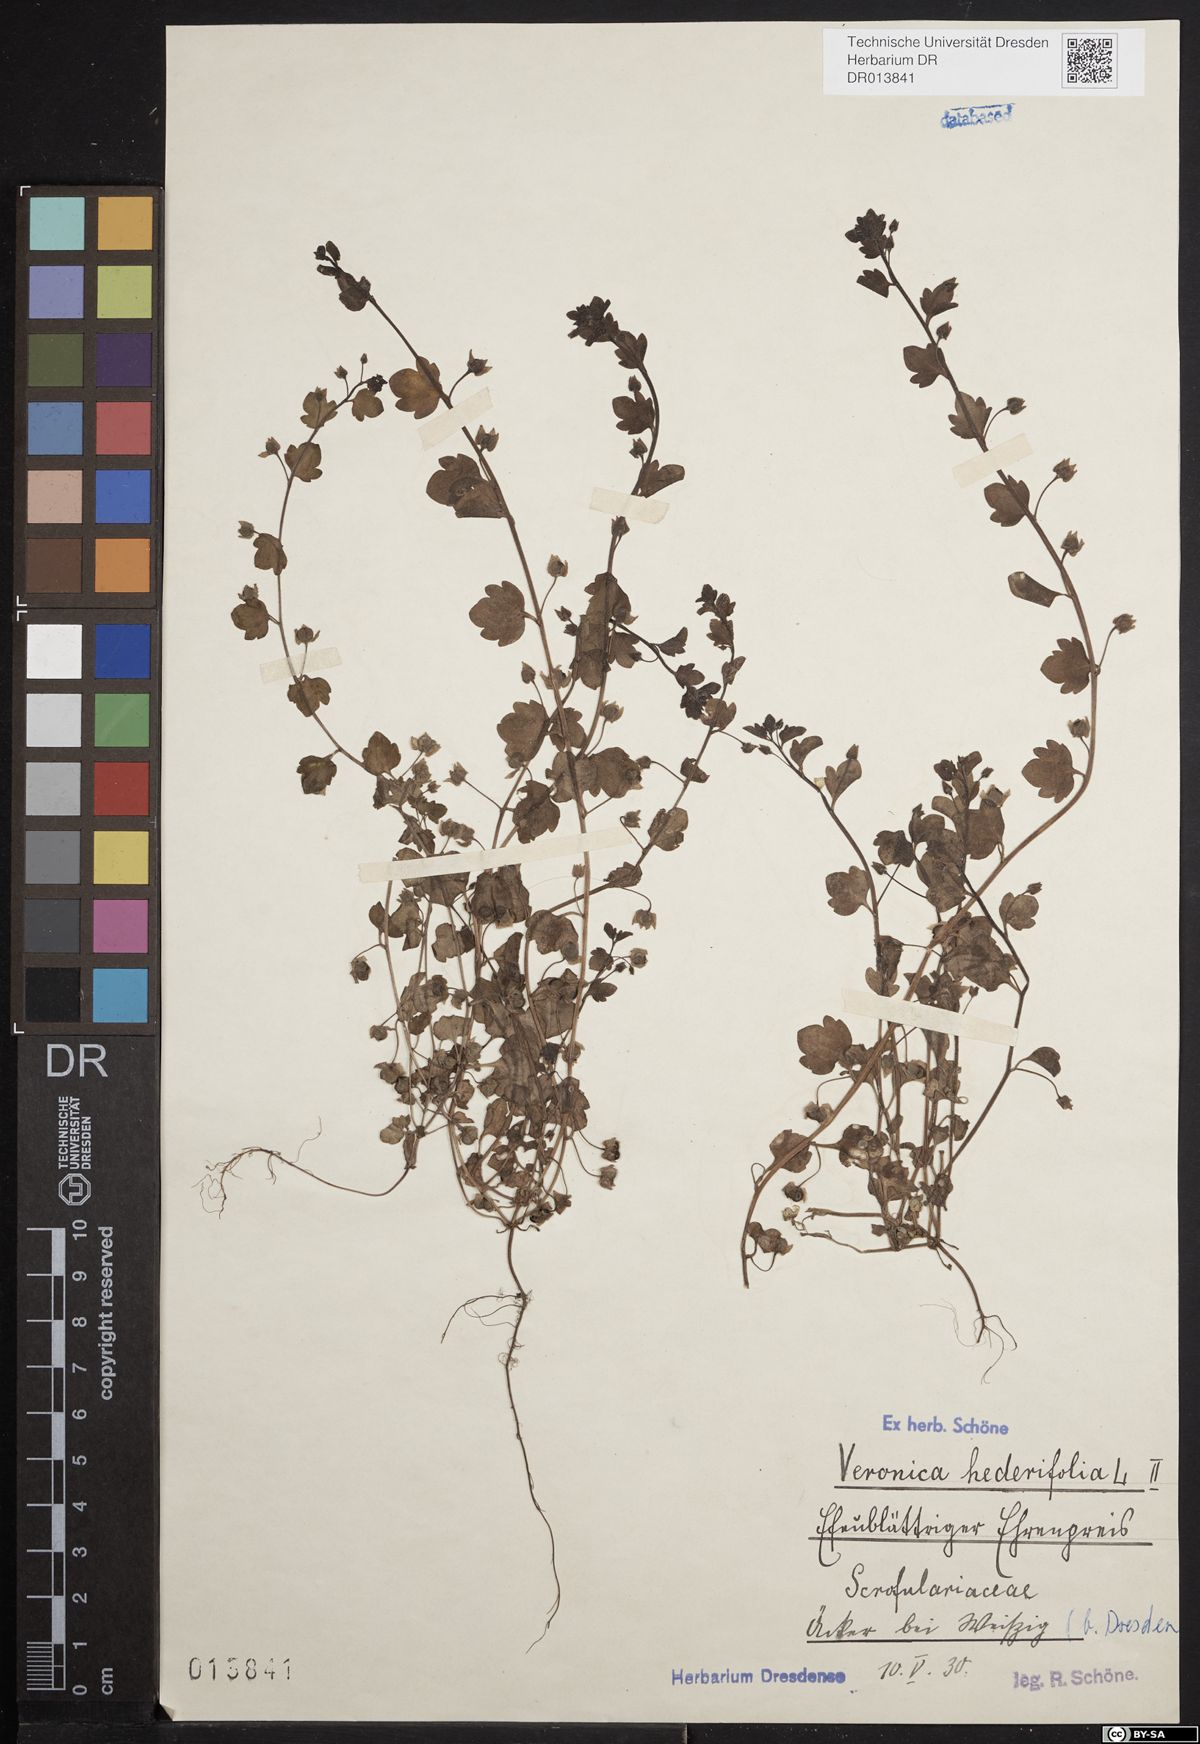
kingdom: Plantae
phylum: Tracheophyta
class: Magnoliopsida
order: Lamiales
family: Plantaginaceae
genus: Veronica
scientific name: Veronica hederifolia
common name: Ivy-leaved speedwell
